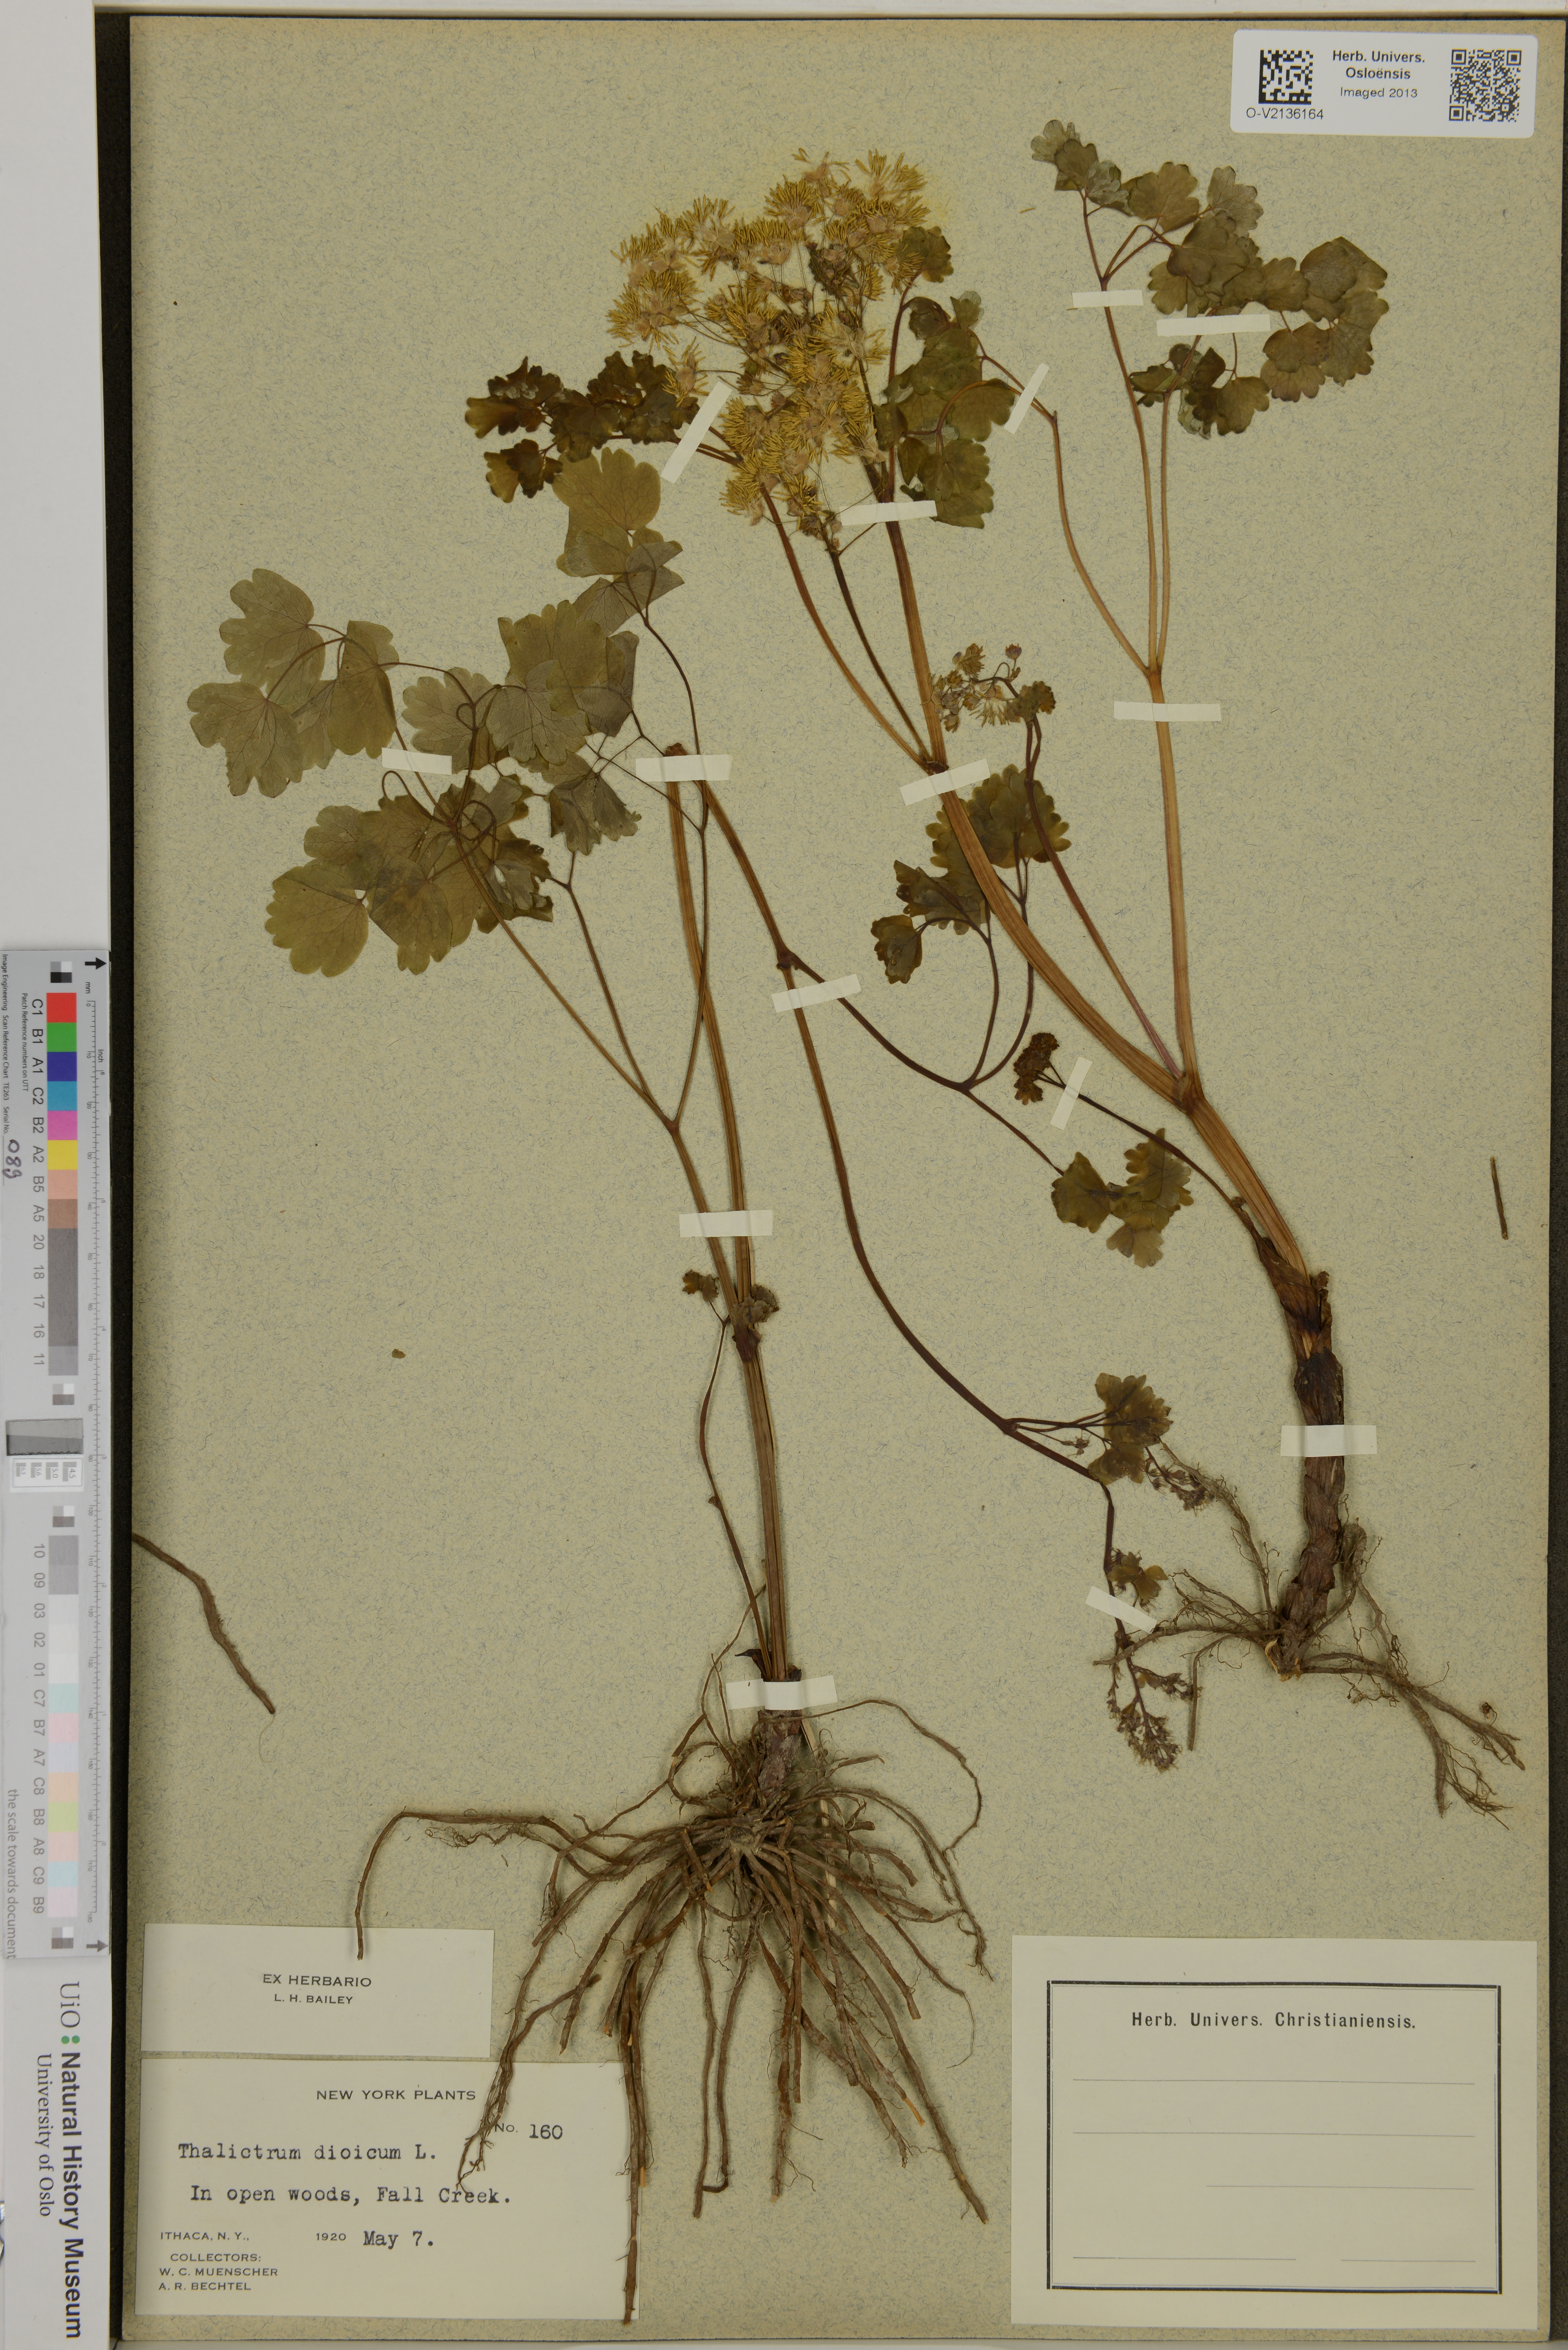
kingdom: Plantae
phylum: Tracheophyta
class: Magnoliopsida
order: Ranunculales
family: Ranunculaceae
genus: Thalictrum
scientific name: Thalictrum dioicum
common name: Early meadow-rue
